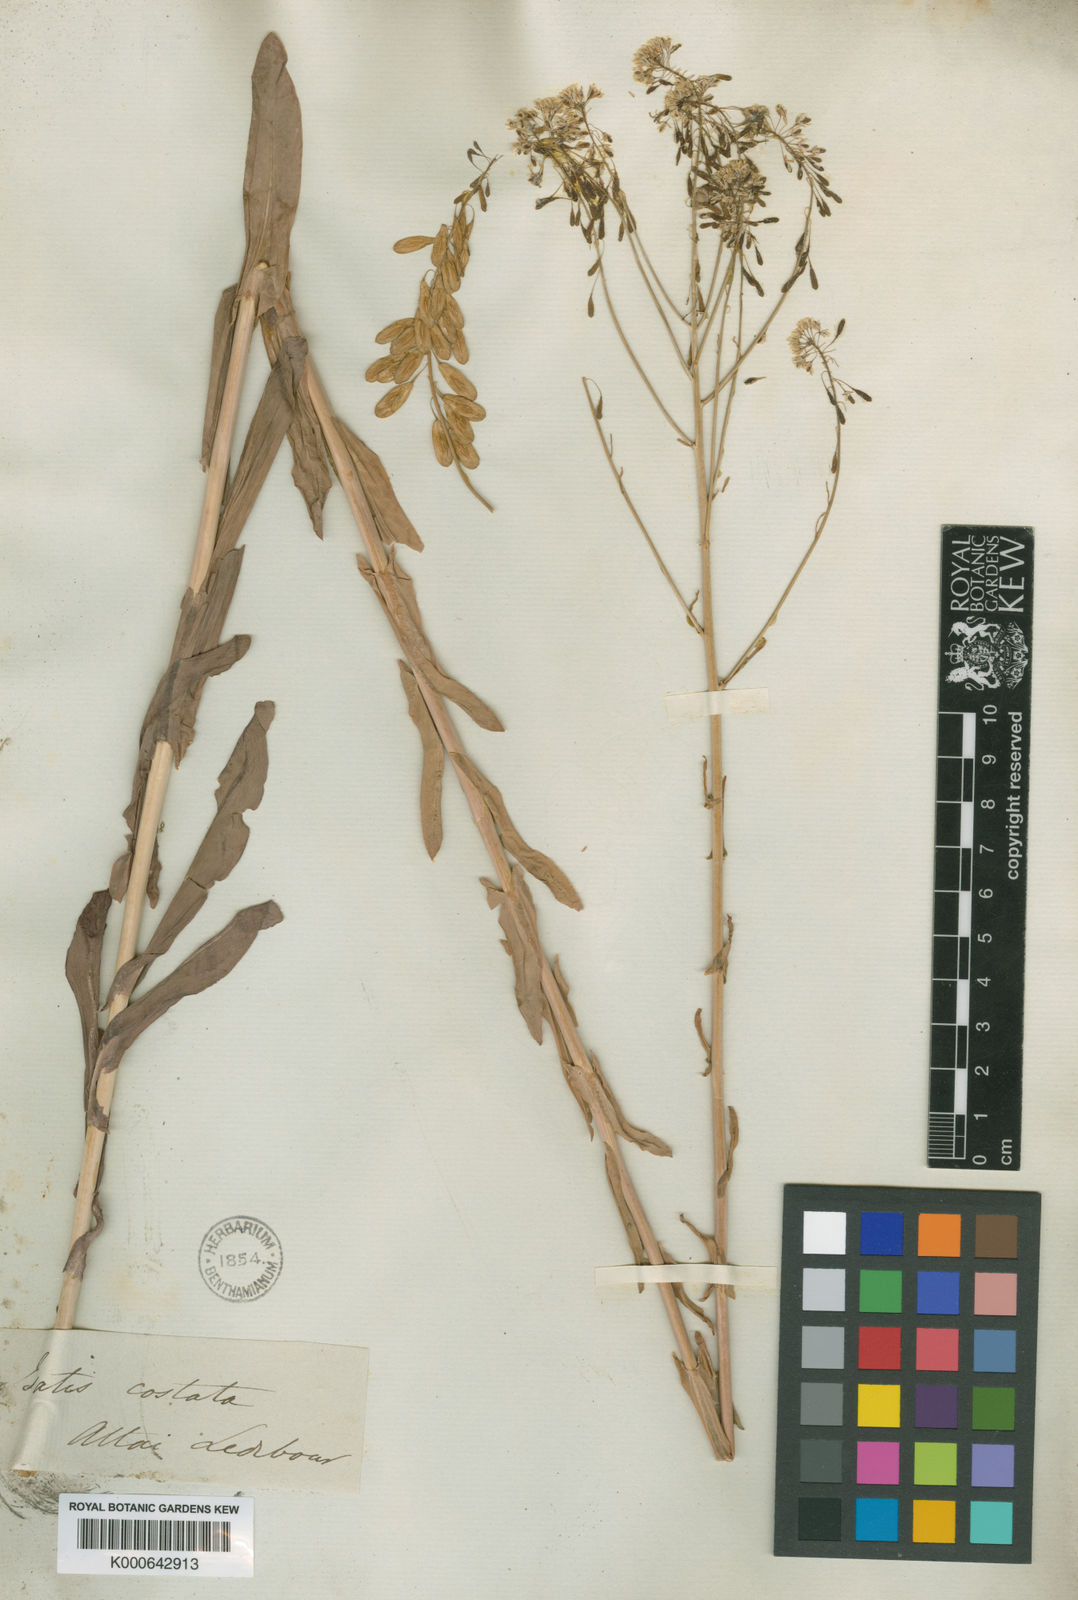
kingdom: Plantae
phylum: Tracheophyta
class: Magnoliopsida
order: Brassicales
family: Brassicaceae
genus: Isatis
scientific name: Isatis costata
